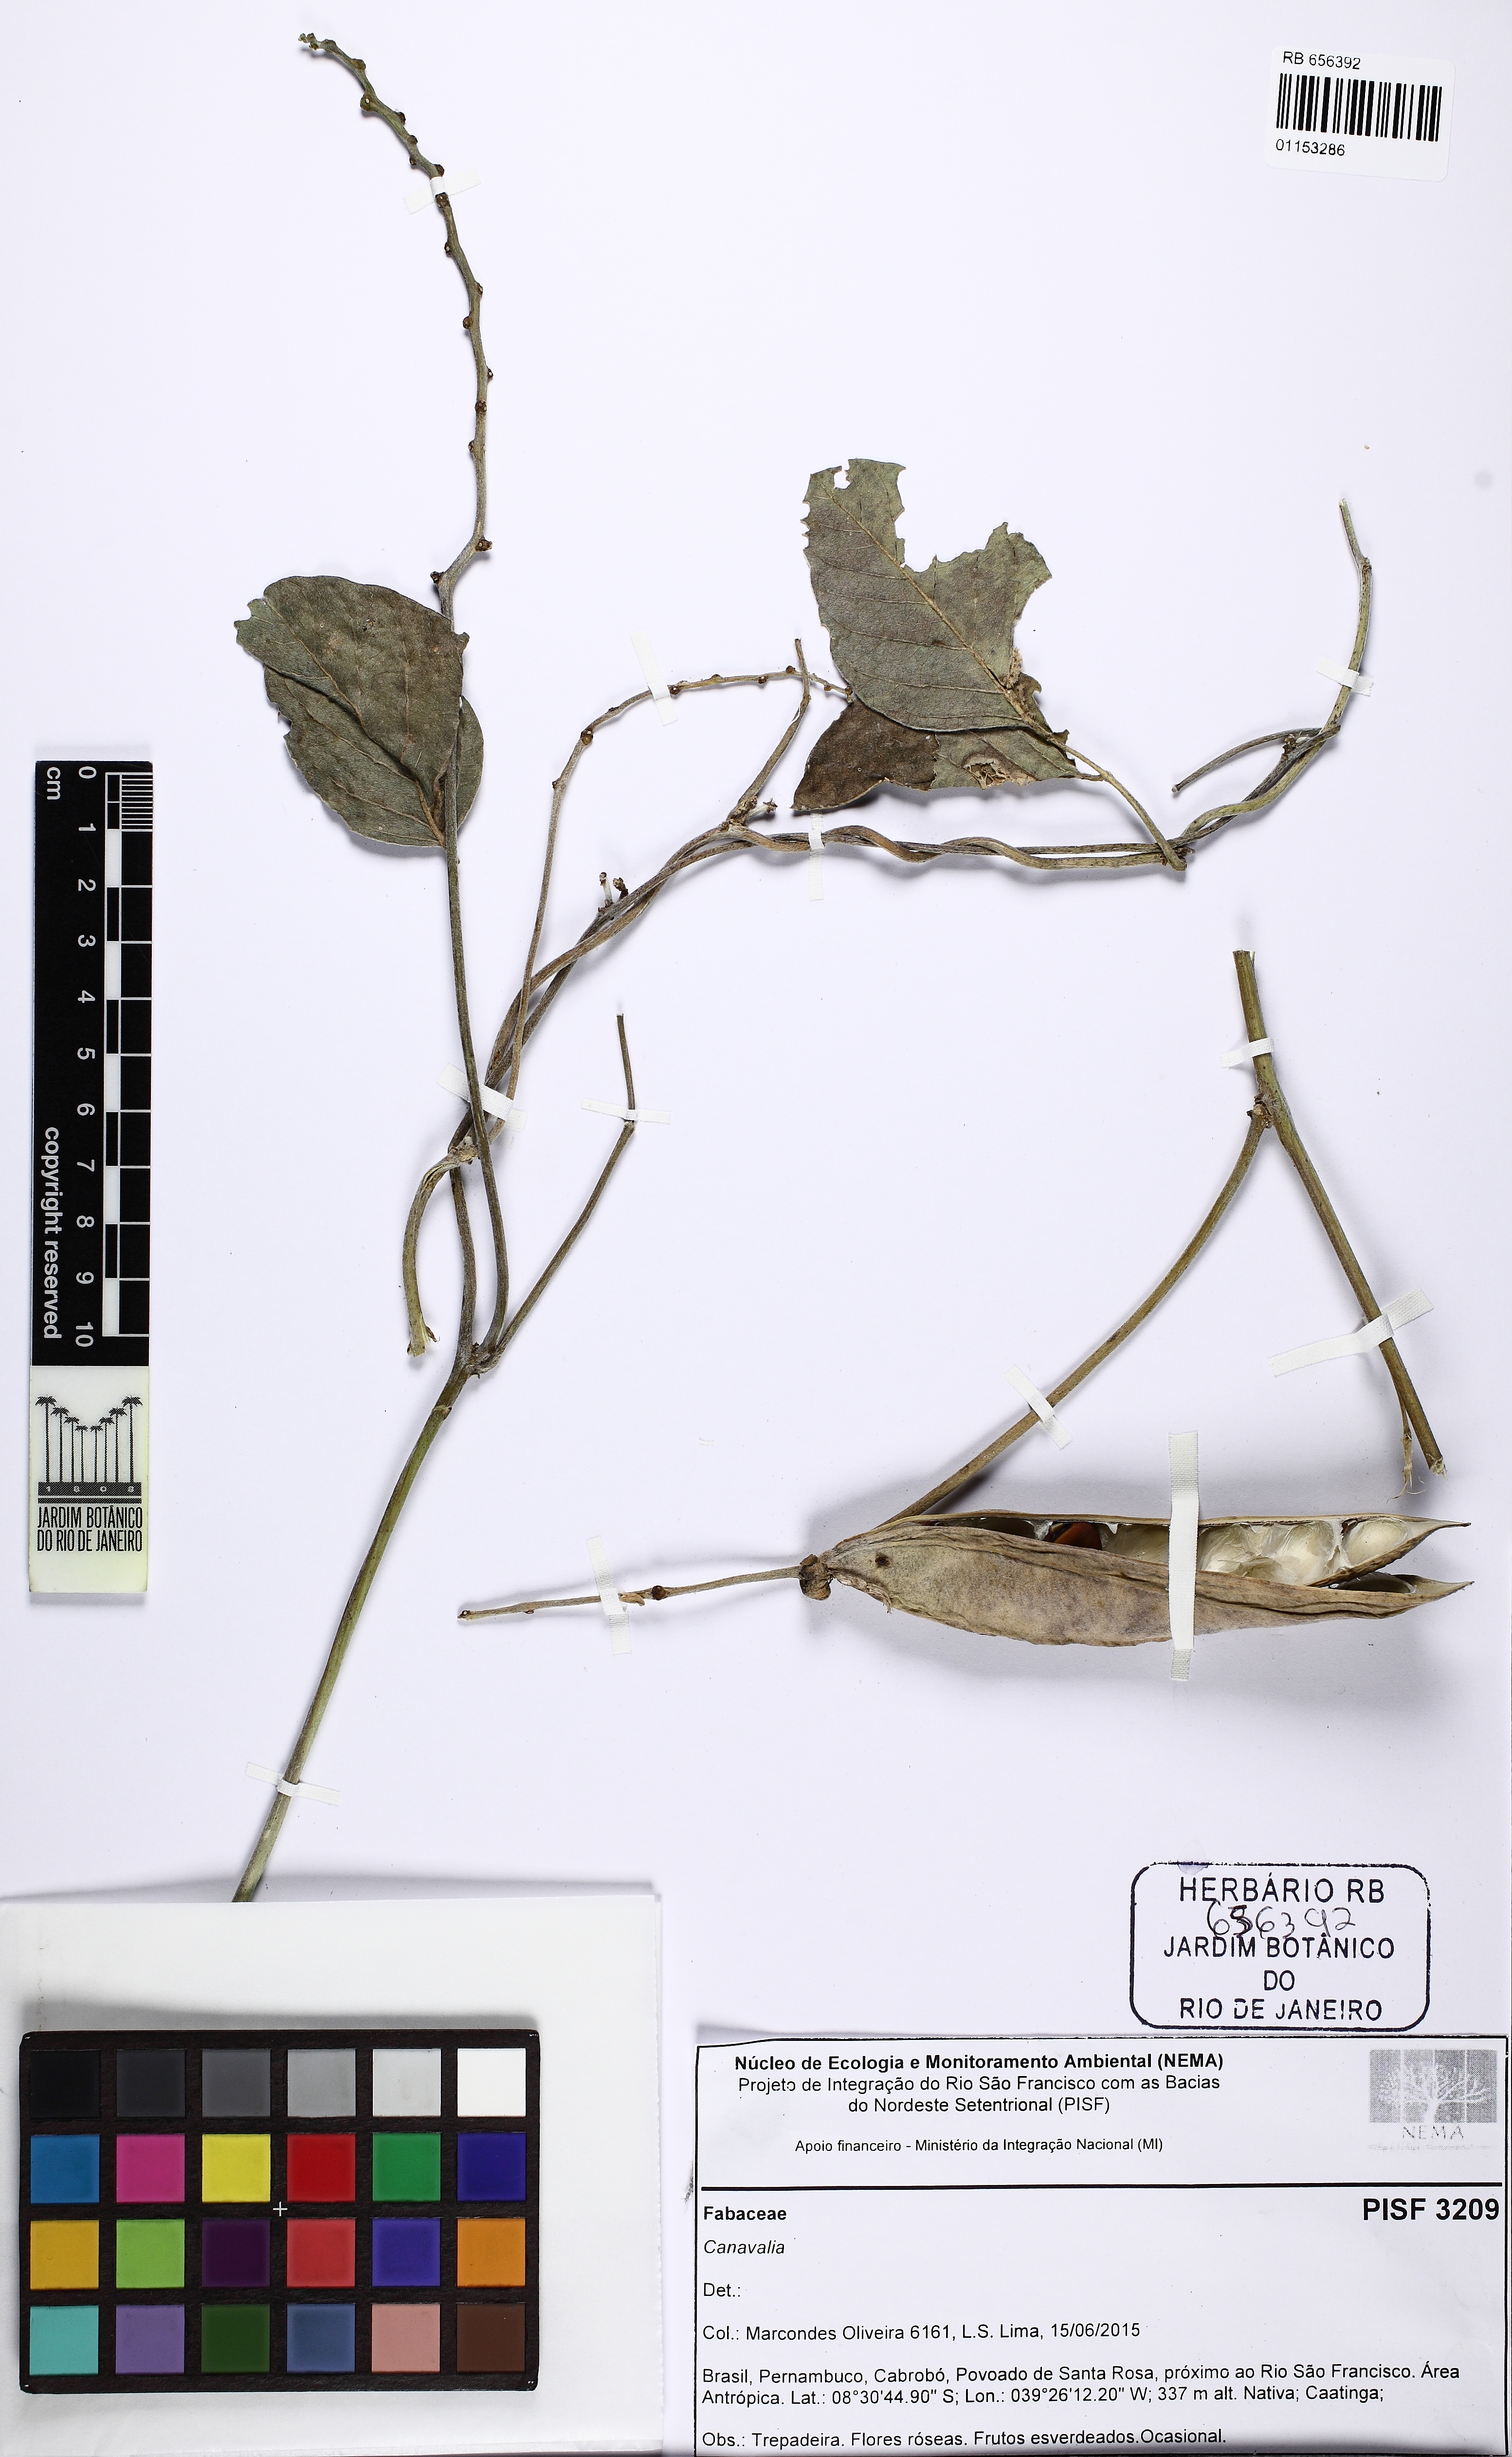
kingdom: Plantae
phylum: Tracheophyta
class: Magnoliopsida
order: Fabales
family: Fabaceae
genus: Canavalia
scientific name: Canavalia
